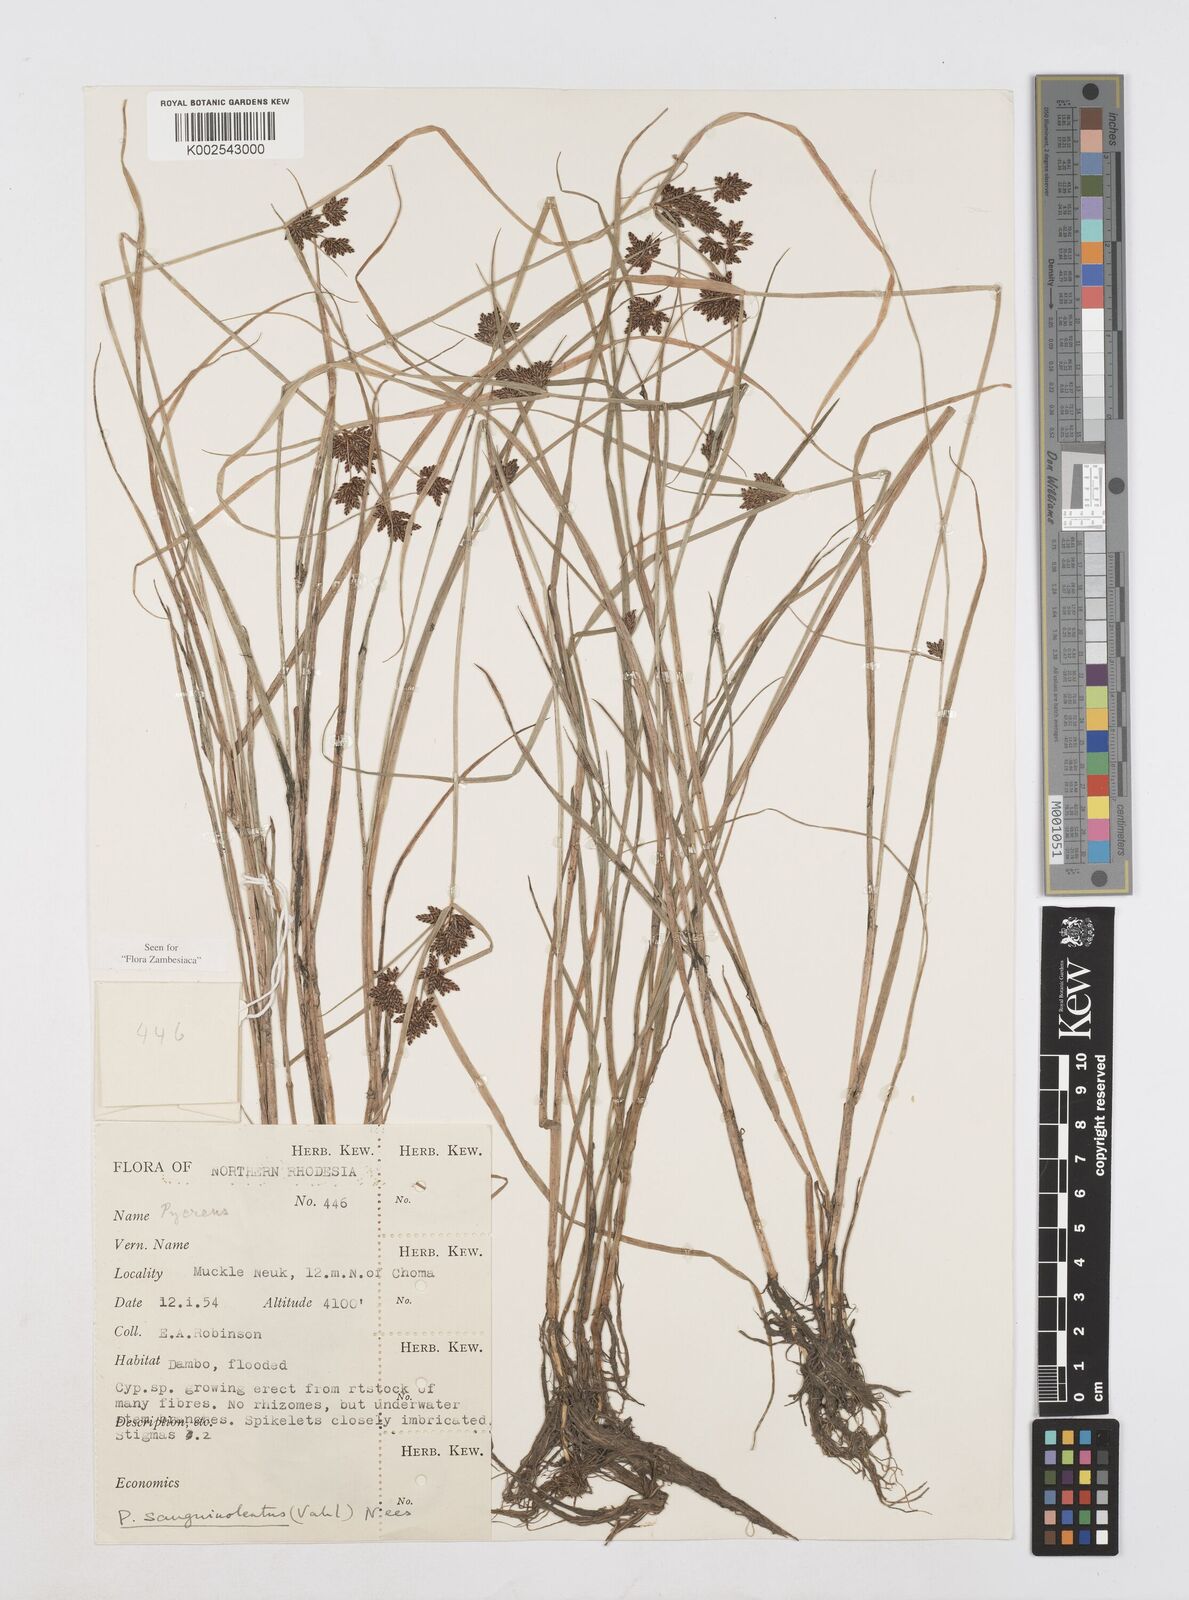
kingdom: Plantae
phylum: Tracheophyta
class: Liliopsida
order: Poales
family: Cyperaceae
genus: Cyperus
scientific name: Cyperus sanguinolentus
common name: Purpleglume flatsedge
